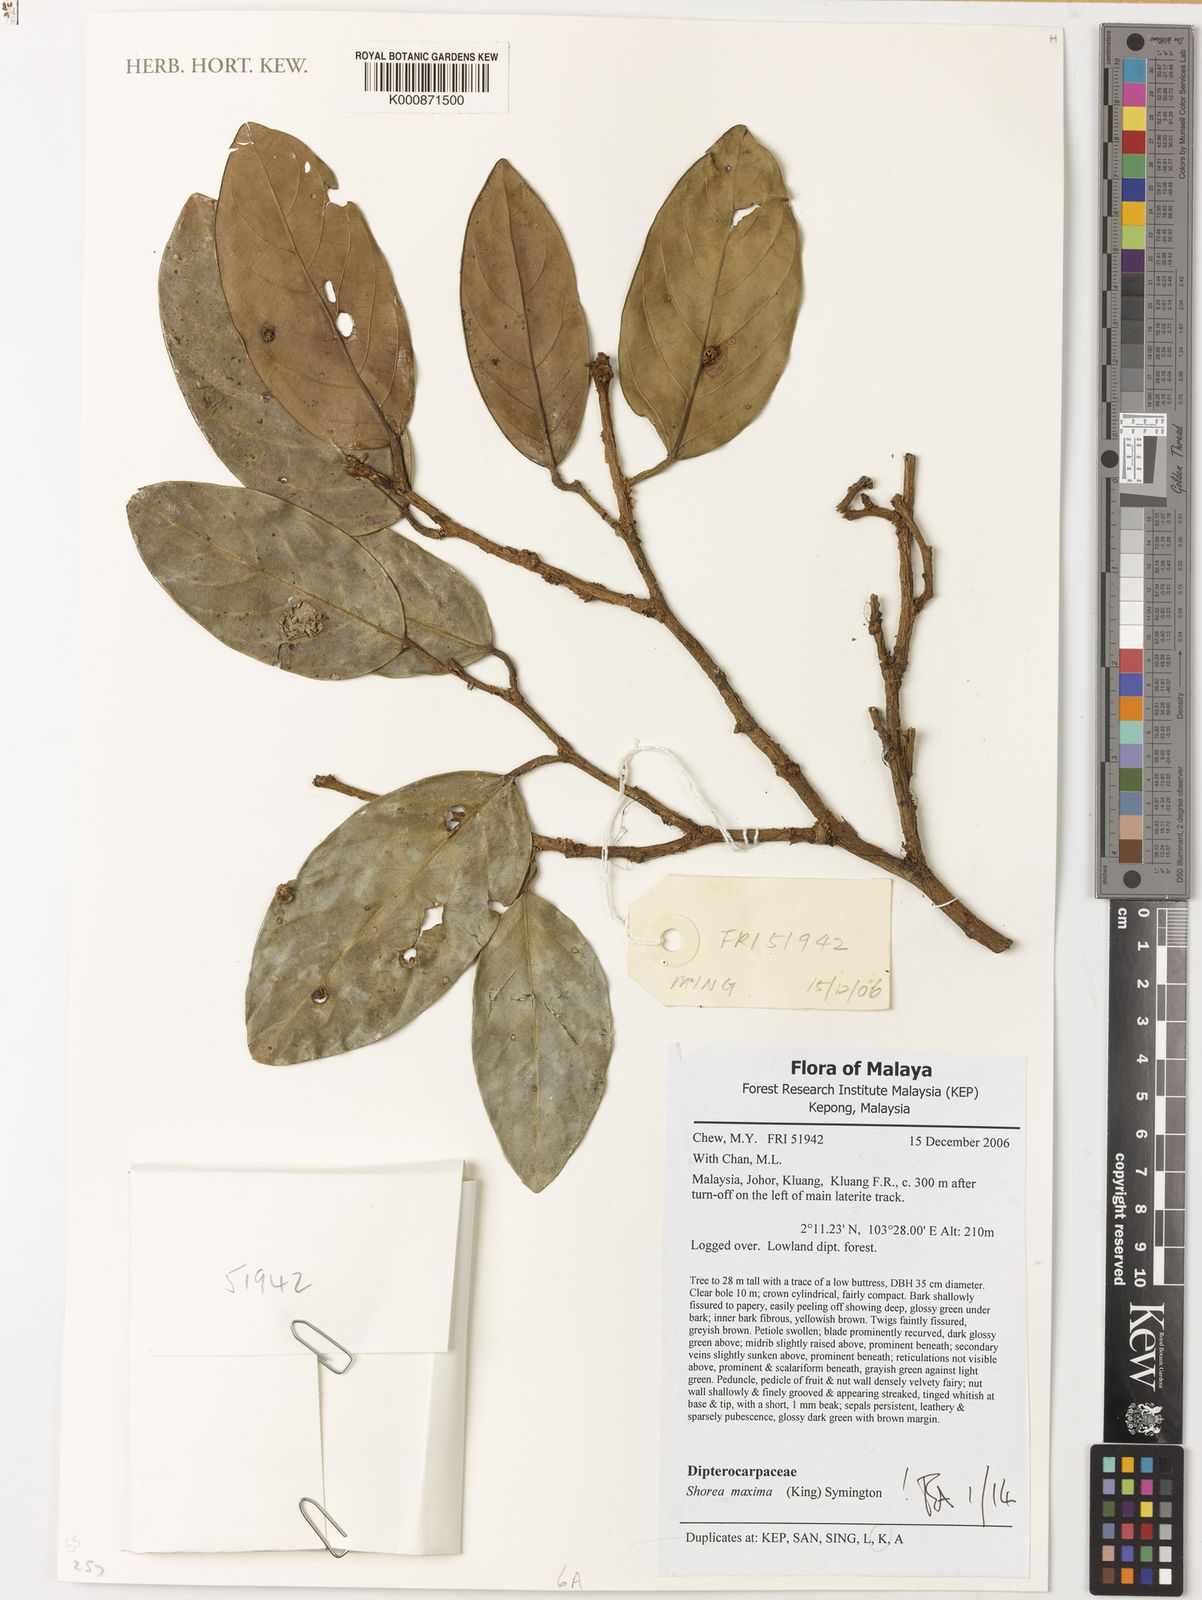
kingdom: Plantae
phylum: Tracheophyta
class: Magnoliopsida
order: Malvales
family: Dipterocarpaceae
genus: Shorea
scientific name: Shorea maxima
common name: Yellow meranti
